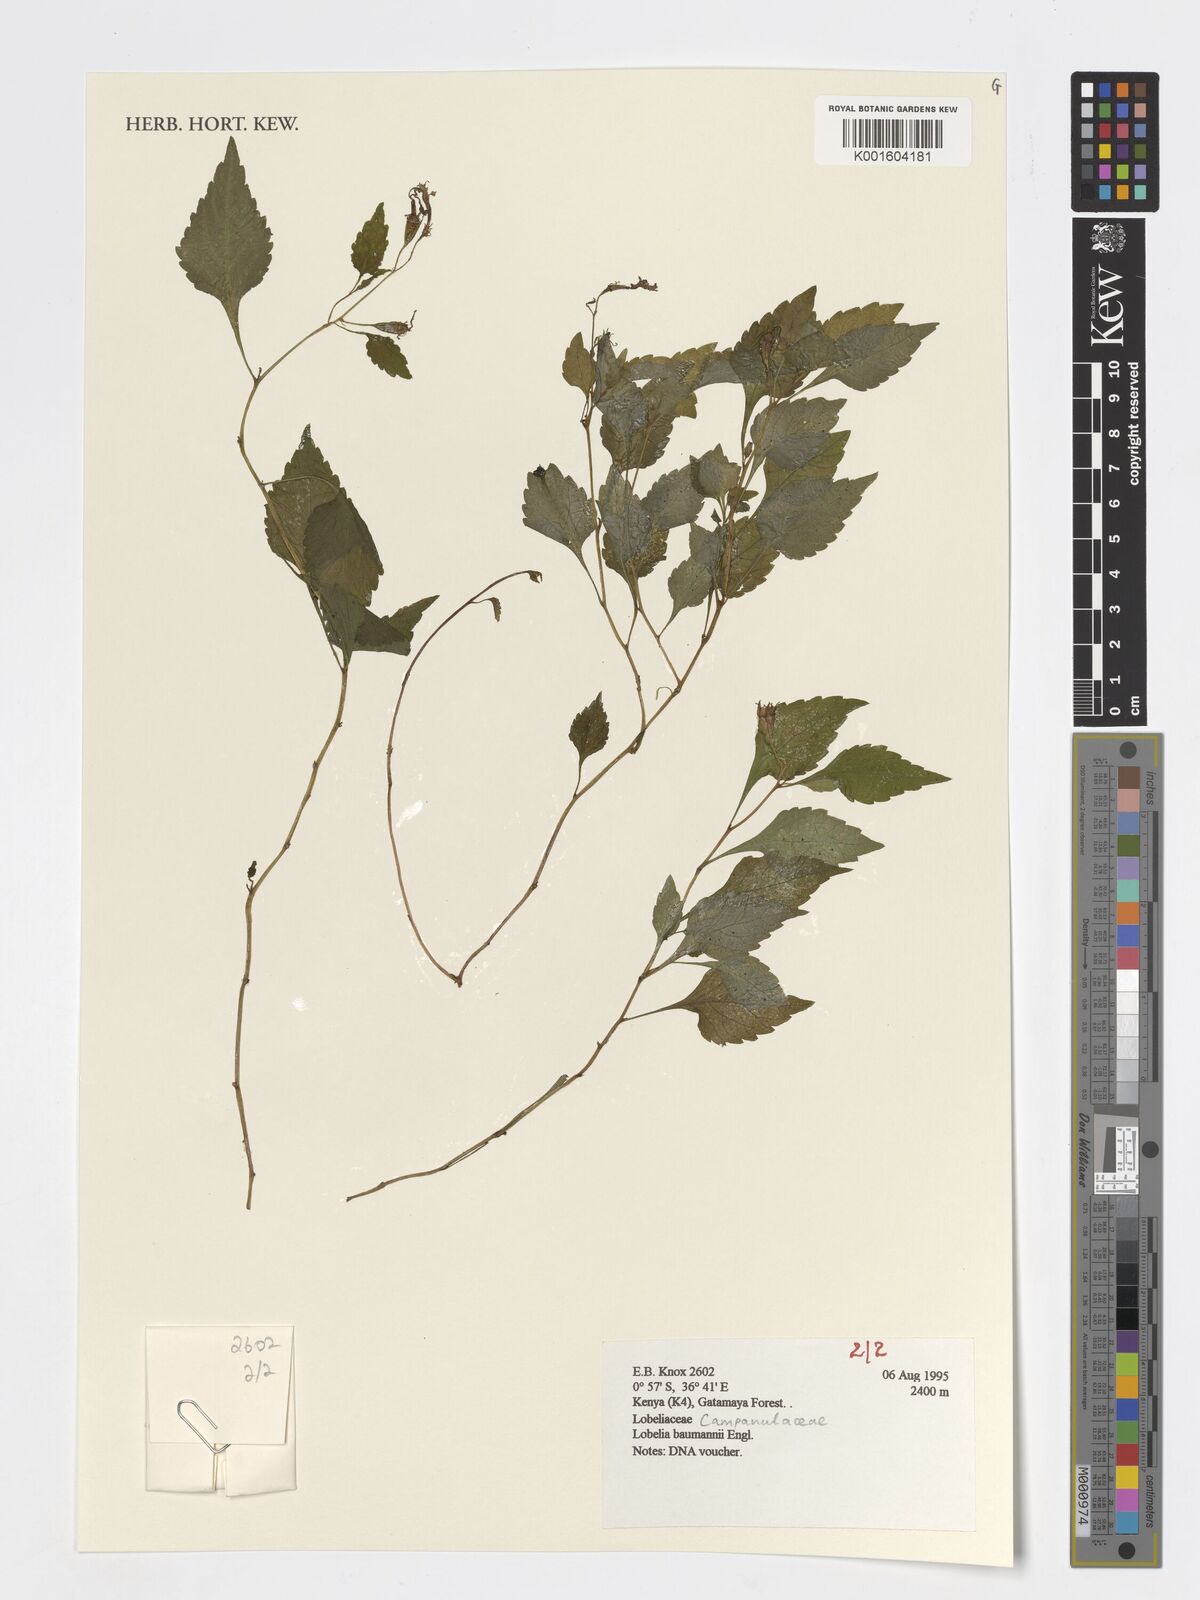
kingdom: Plantae
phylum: Tracheophyta
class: Magnoliopsida
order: Asterales
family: Campanulaceae
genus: Lobelia
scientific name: Lobelia baumannii
